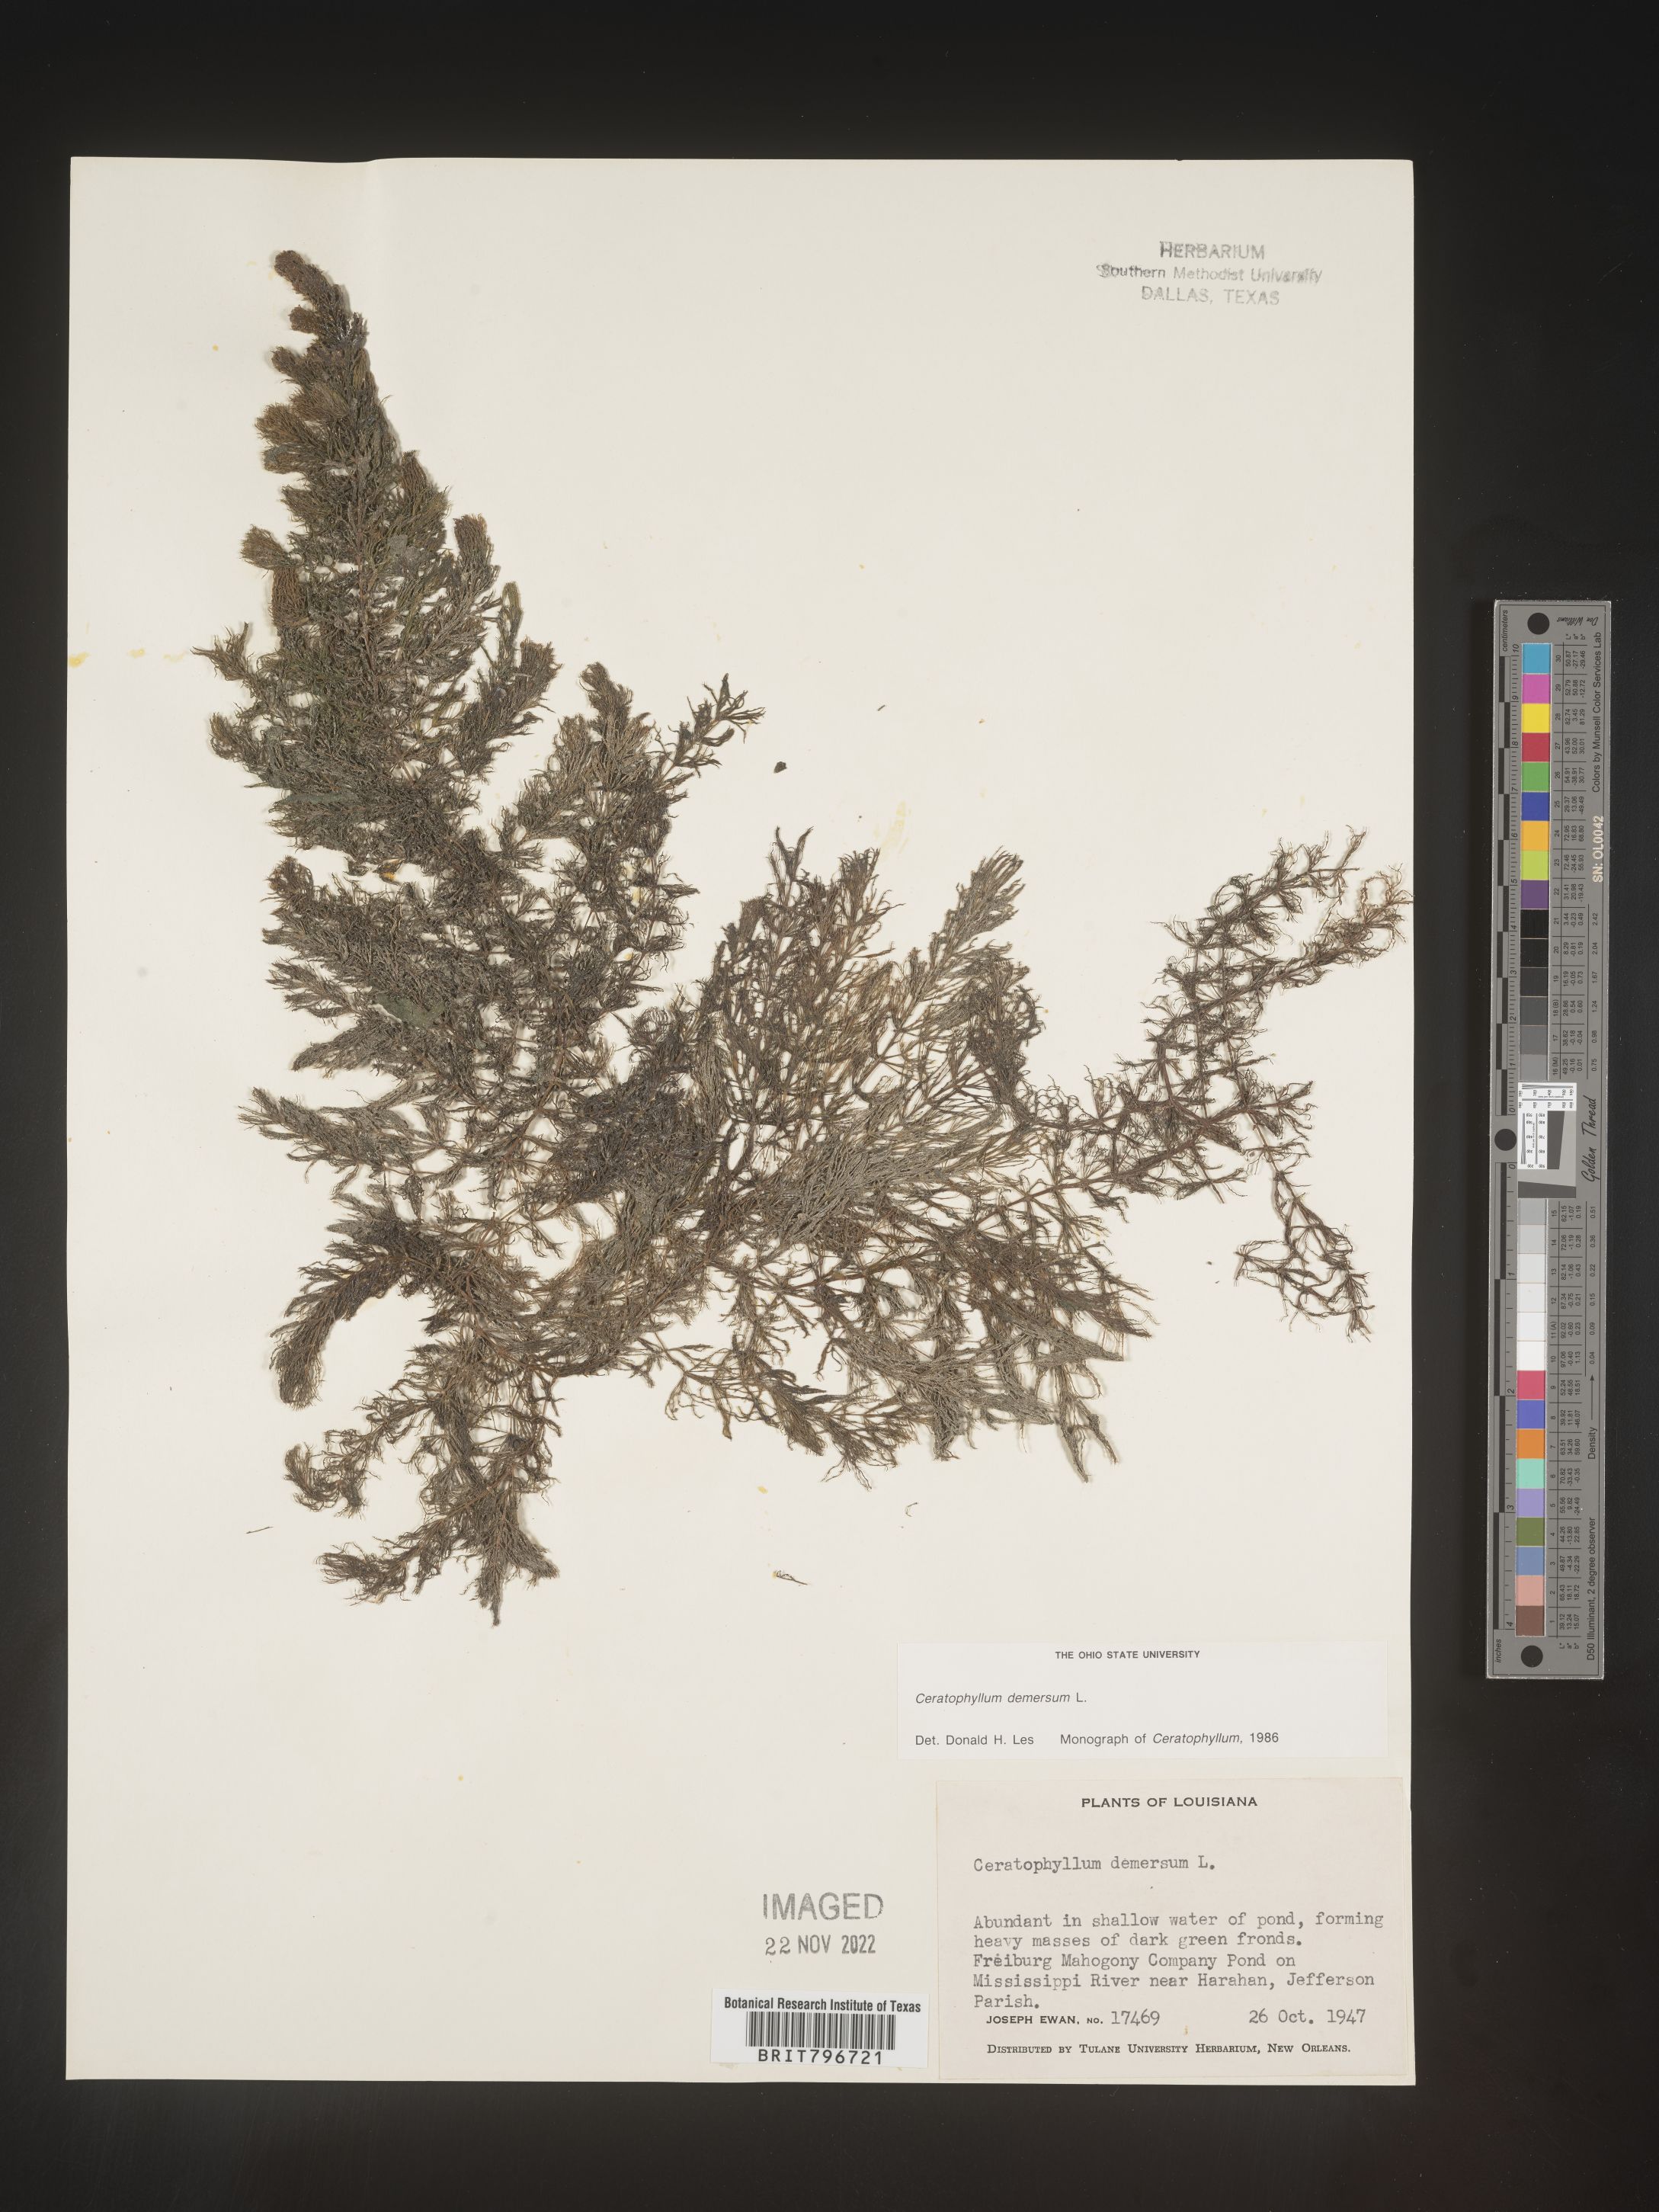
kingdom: Plantae
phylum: Tracheophyta
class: Magnoliopsida
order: Ceratophyllales
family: Ceratophyllaceae
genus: Ceratophyllum
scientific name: Ceratophyllum demersum
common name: Rigid hornwort
